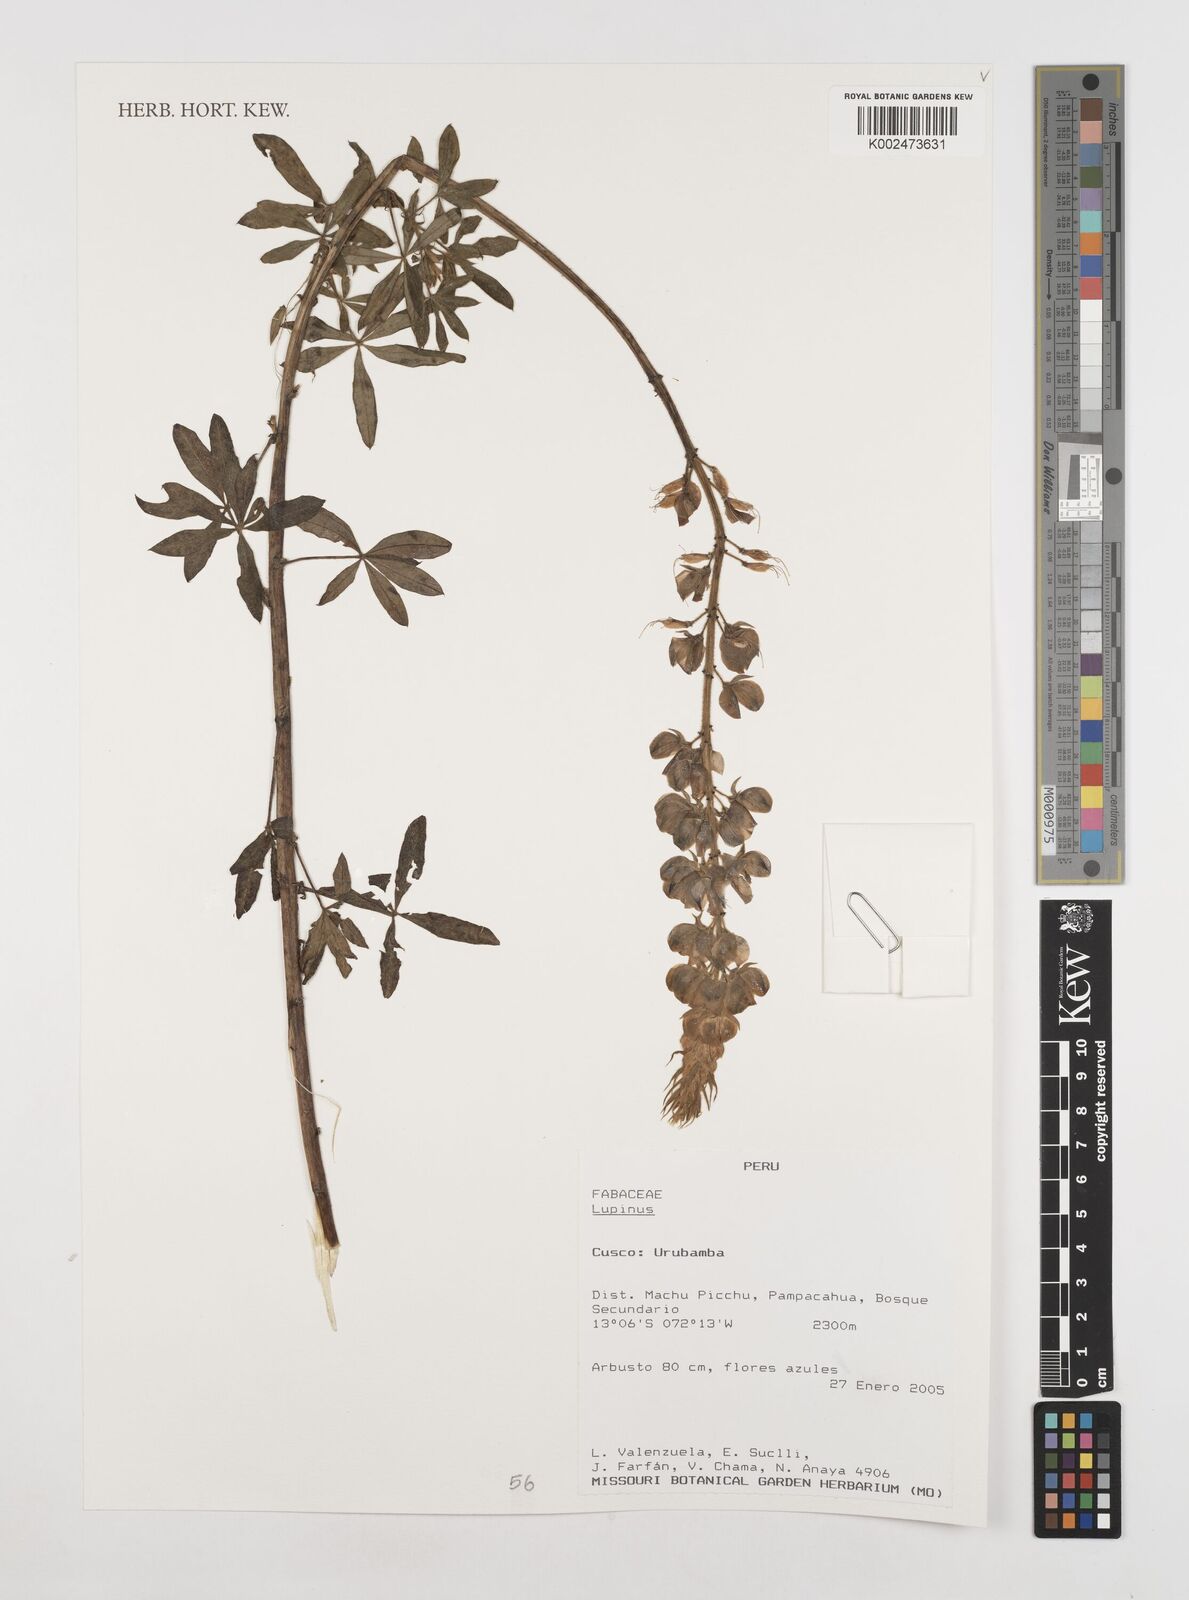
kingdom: Plantae
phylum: Tracheophyta
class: Magnoliopsida
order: Fabales
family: Fabaceae
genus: Lupinus
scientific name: Lupinus
